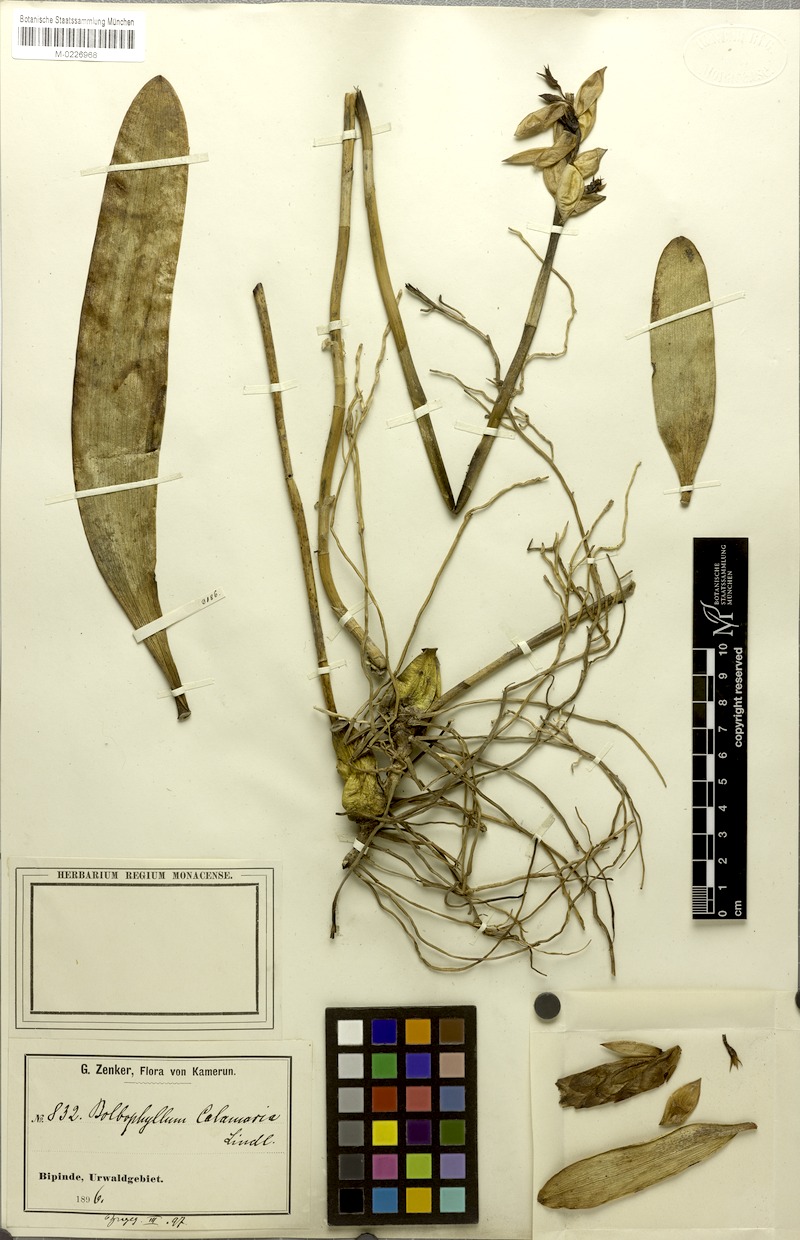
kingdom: Plantae
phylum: Tracheophyta
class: Liliopsida
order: Asparagales
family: Orchidaceae
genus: Bulbophyllum
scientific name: Bulbophyllum schinzianum
